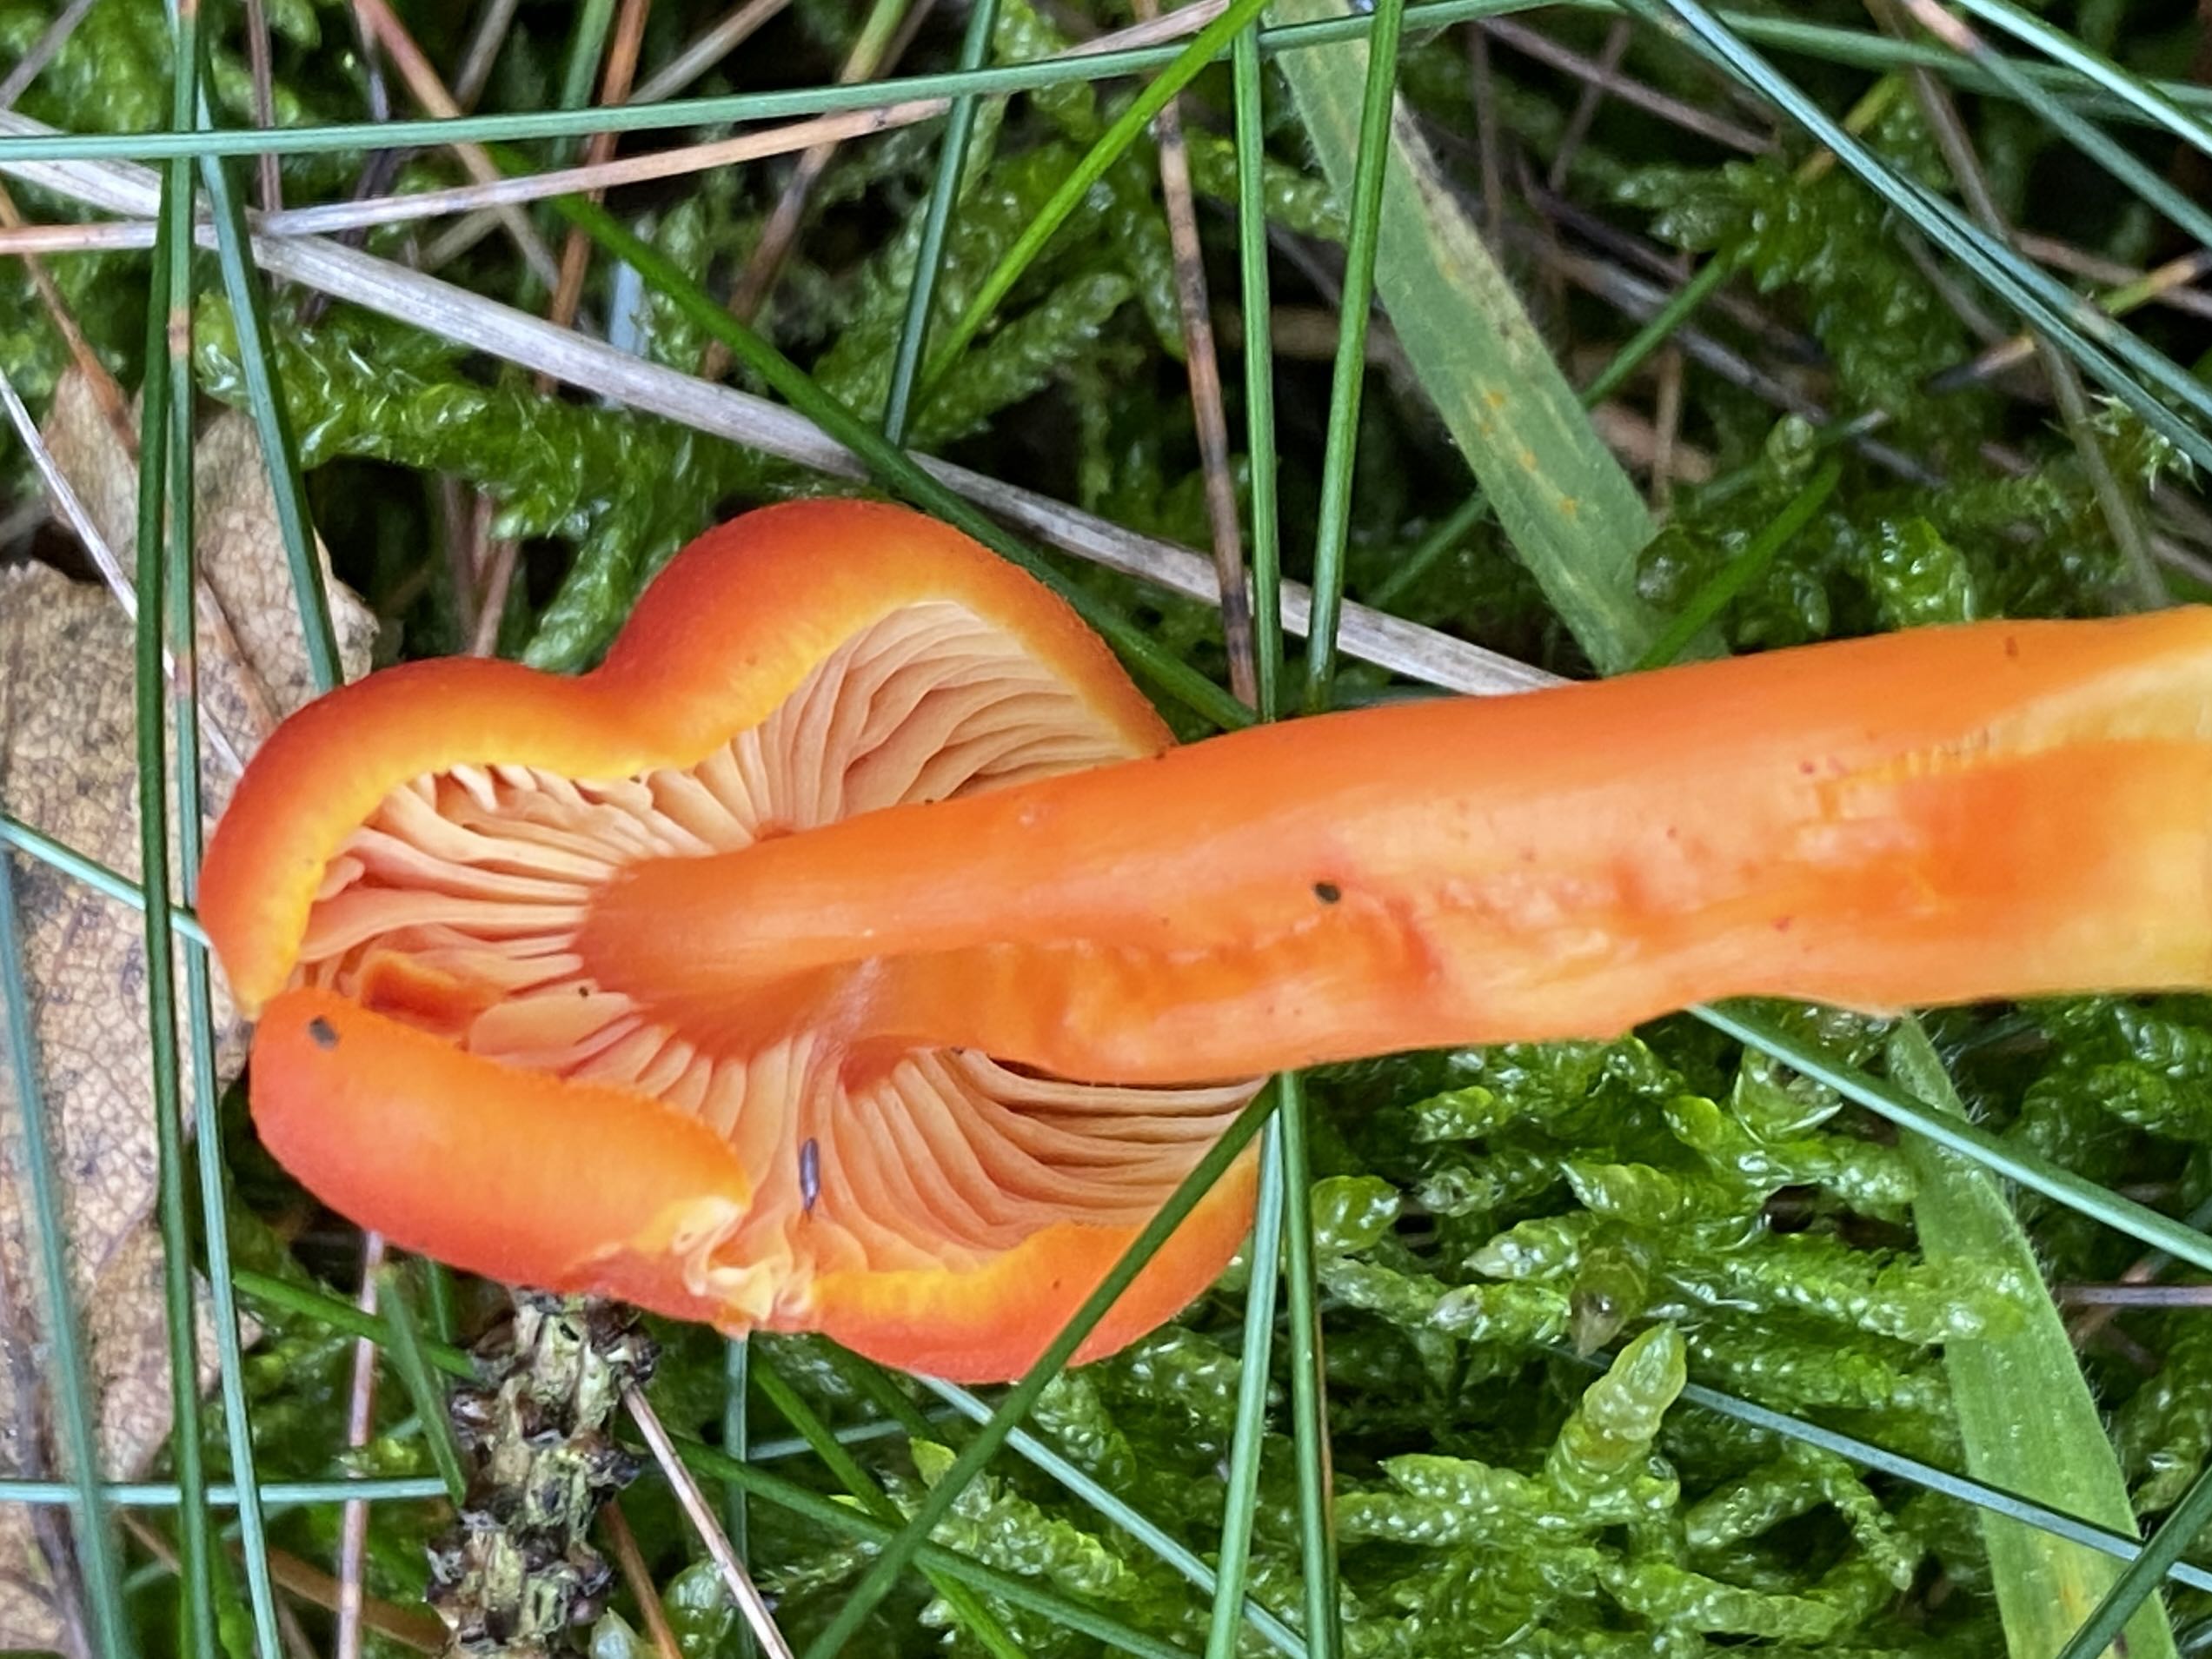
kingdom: Fungi
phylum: Basidiomycota
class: Agaricomycetes
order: Agaricales
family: Hygrophoraceae
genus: Hygrocybe
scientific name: Hygrocybe miniata
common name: mønje-vokshat
